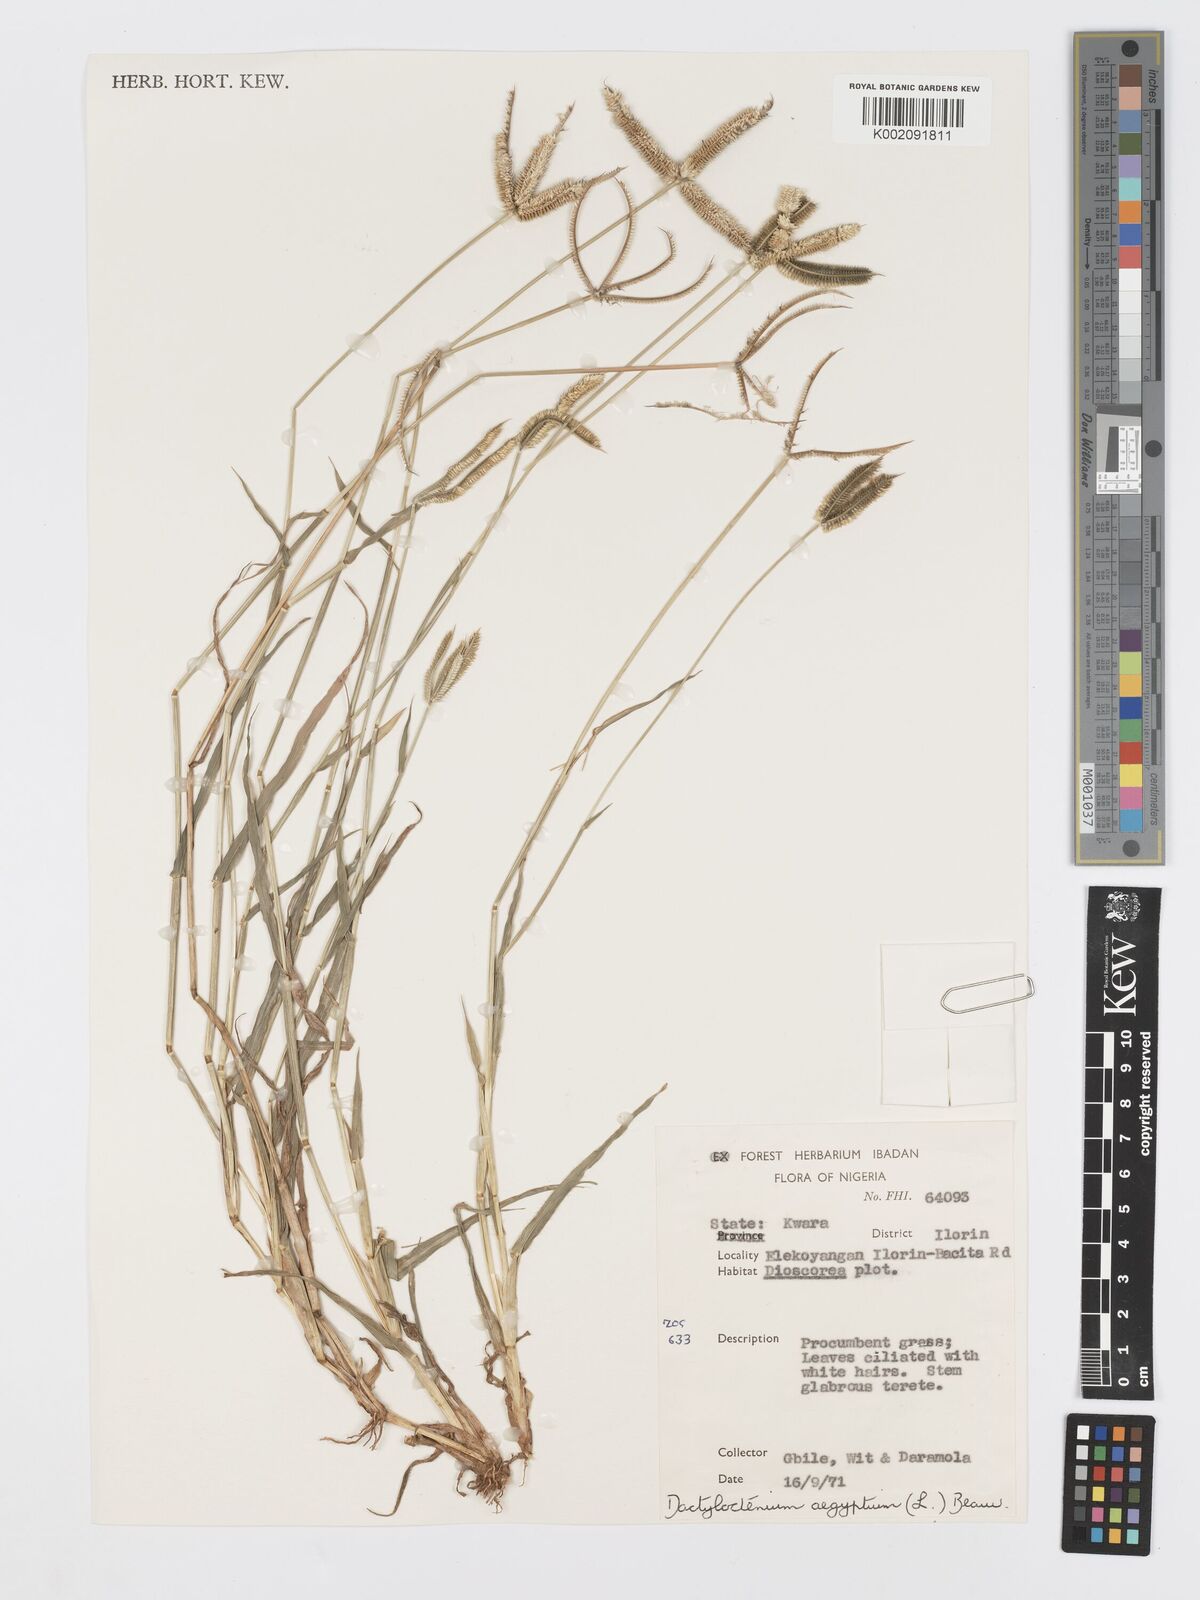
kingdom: Plantae
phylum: Tracheophyta
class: Liliopsida
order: Poales
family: Poaceae
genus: Dactyloctenium
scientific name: Dactyloctenium aegyptium
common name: Egyptian grass
